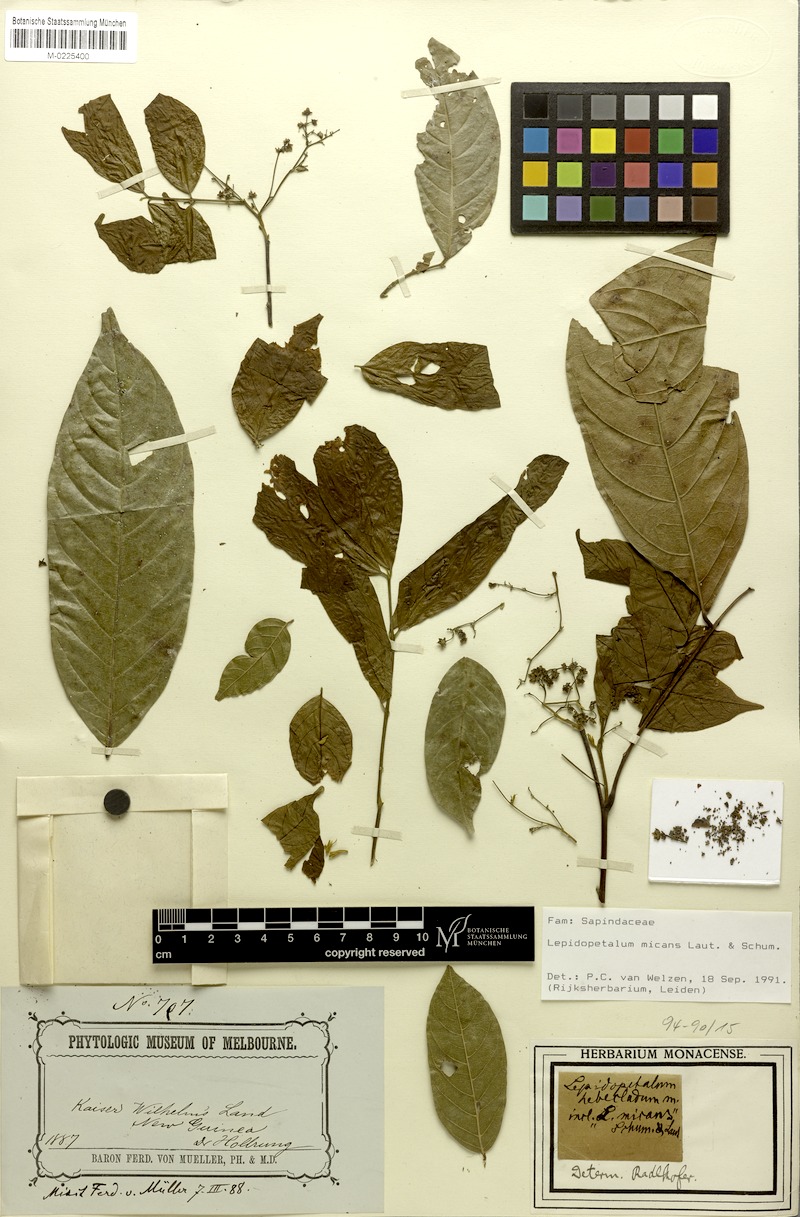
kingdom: Plantae
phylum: Tracheophyta
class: Magnoliopsida
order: Sapindales
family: Sapindaceae
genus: Lepidopetalum
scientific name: Lepidopetalum micans
